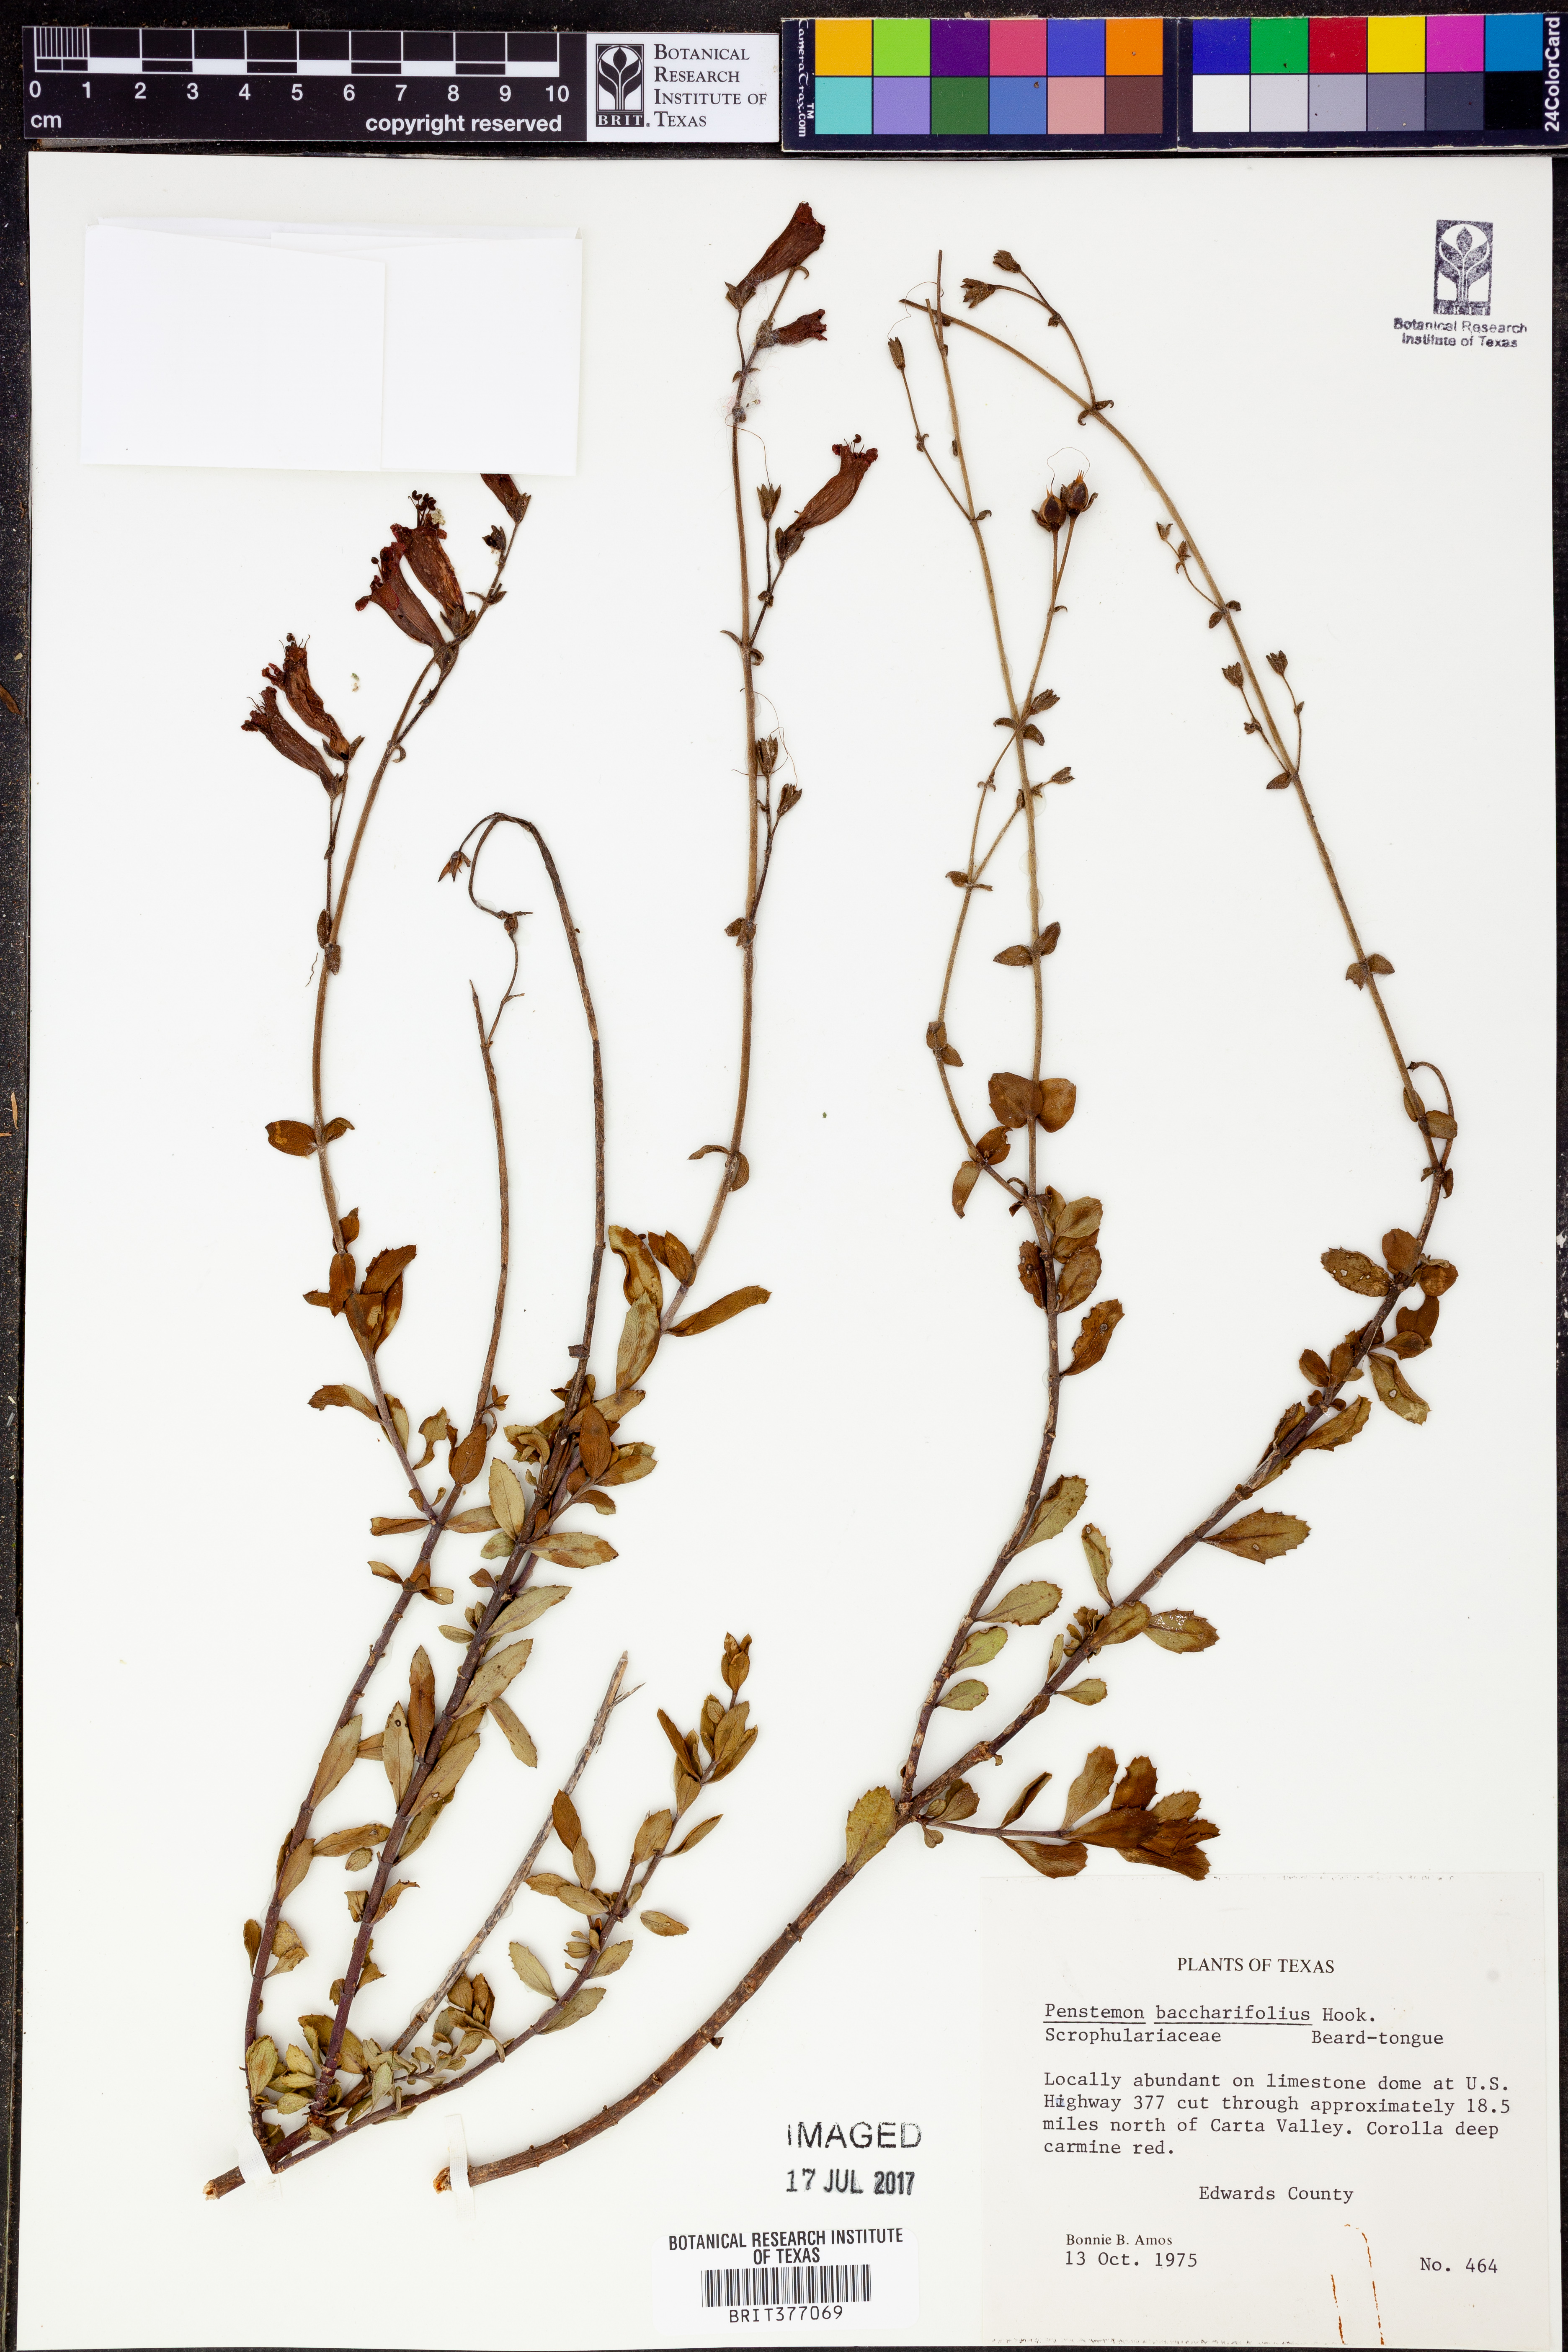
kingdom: Plantae
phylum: Tracheophyta
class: Magnoliopsida
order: Lamiales
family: Plantaginaceae
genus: Penstemon
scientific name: Penstemon baccharifolius
